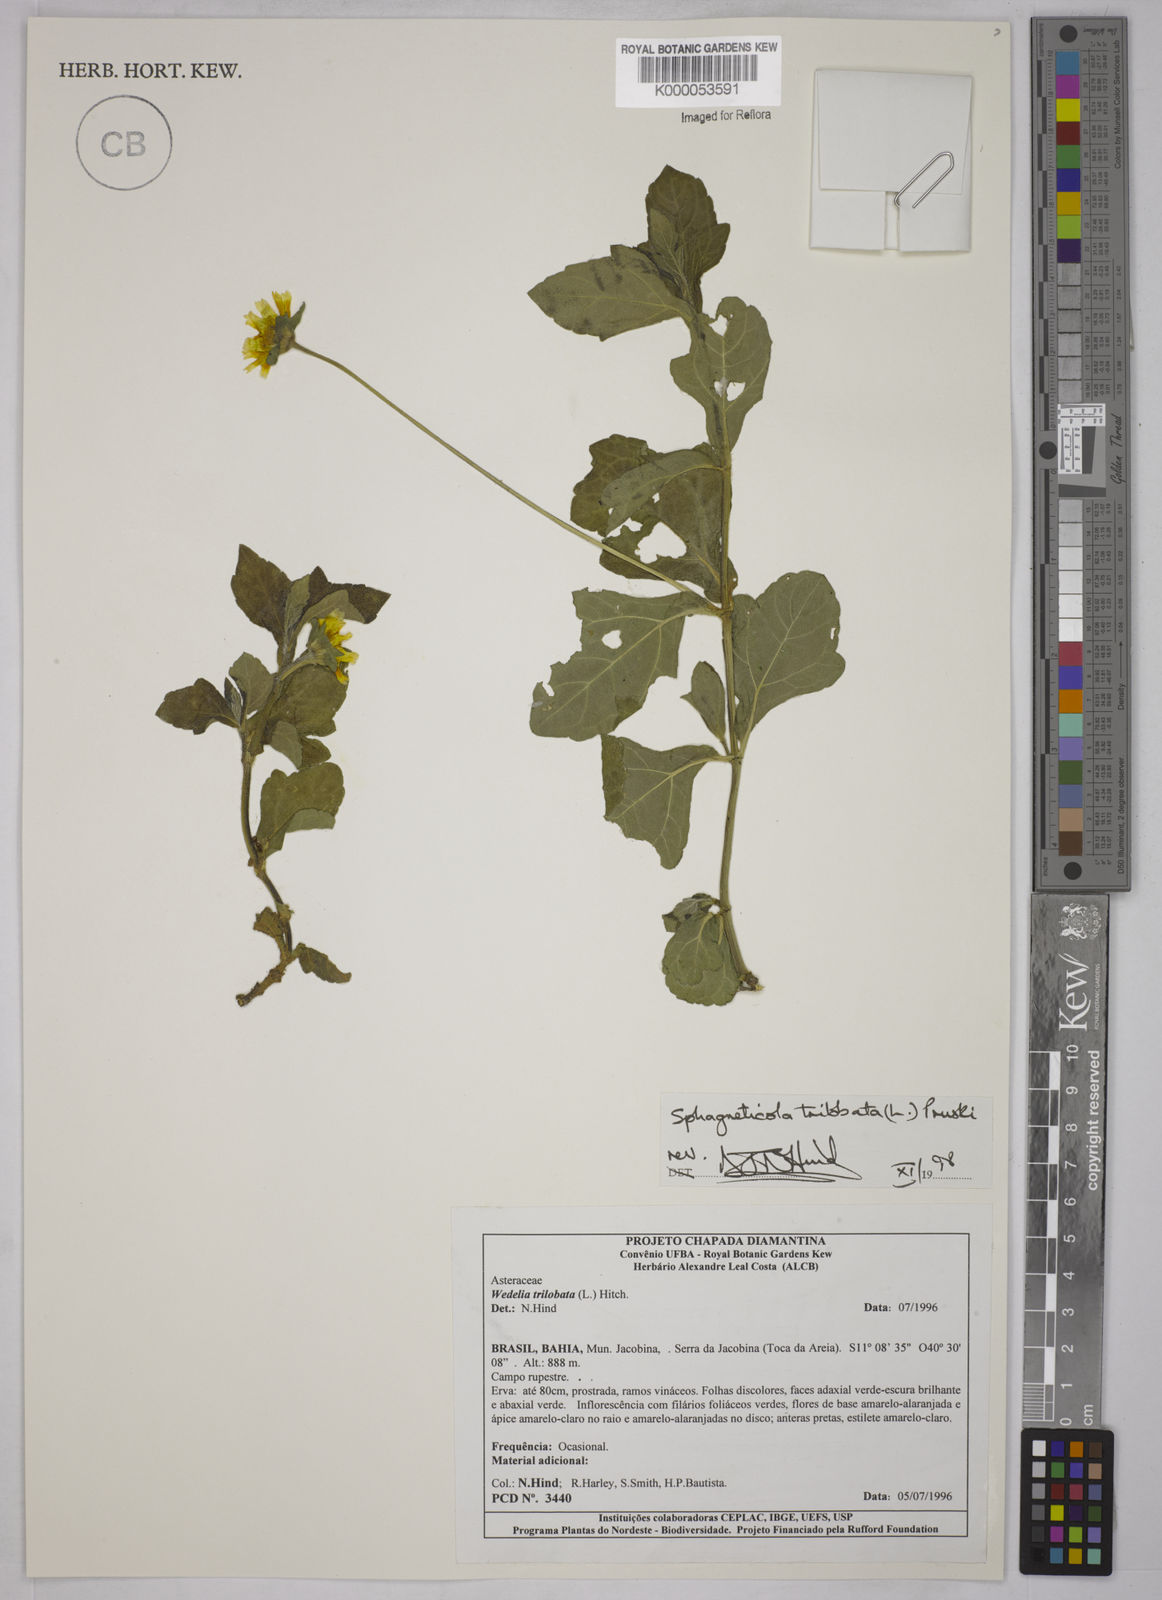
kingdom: Plantae
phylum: Tracheophyta
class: Magnoliopsida
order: Asterales
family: Asteraceae
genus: Sphagneticola
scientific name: Sphagneticola trilobata
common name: Bay biscayne creeping-oxeye
